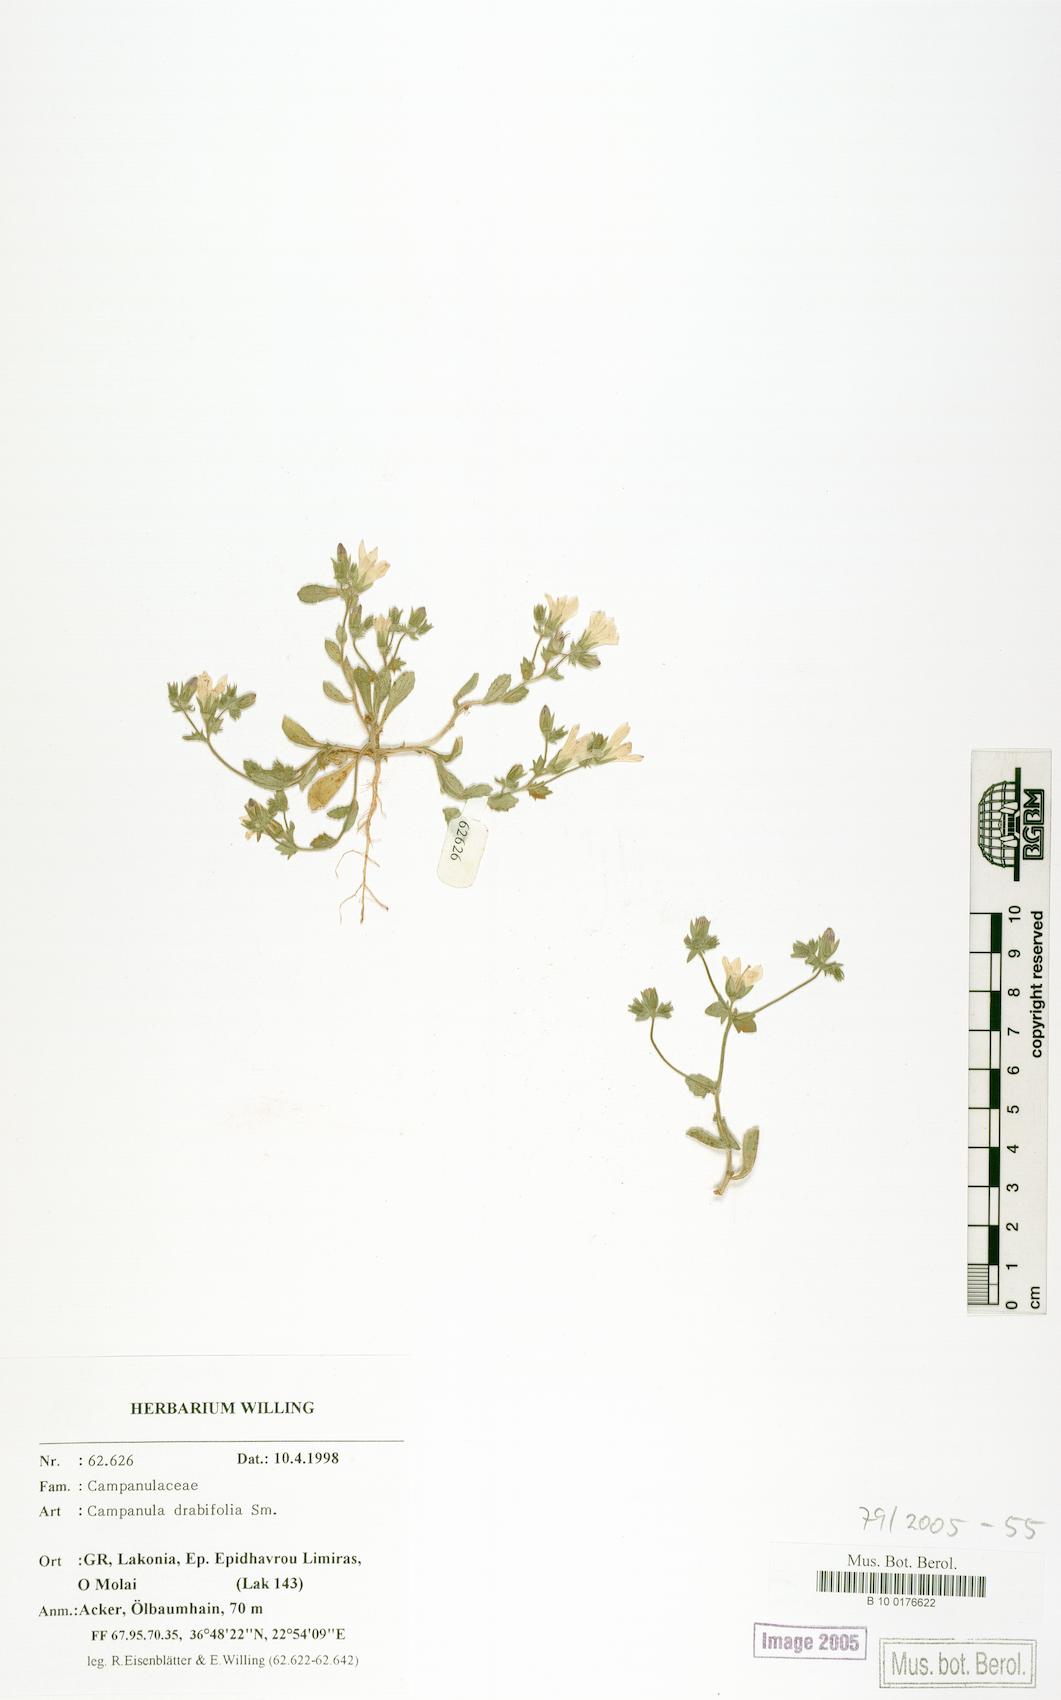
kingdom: Plantae
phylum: Tracheophyta
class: Magnoliopsida
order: Asterales
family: Campanulaceae
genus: Campanula
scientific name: Campanula drabifolia
